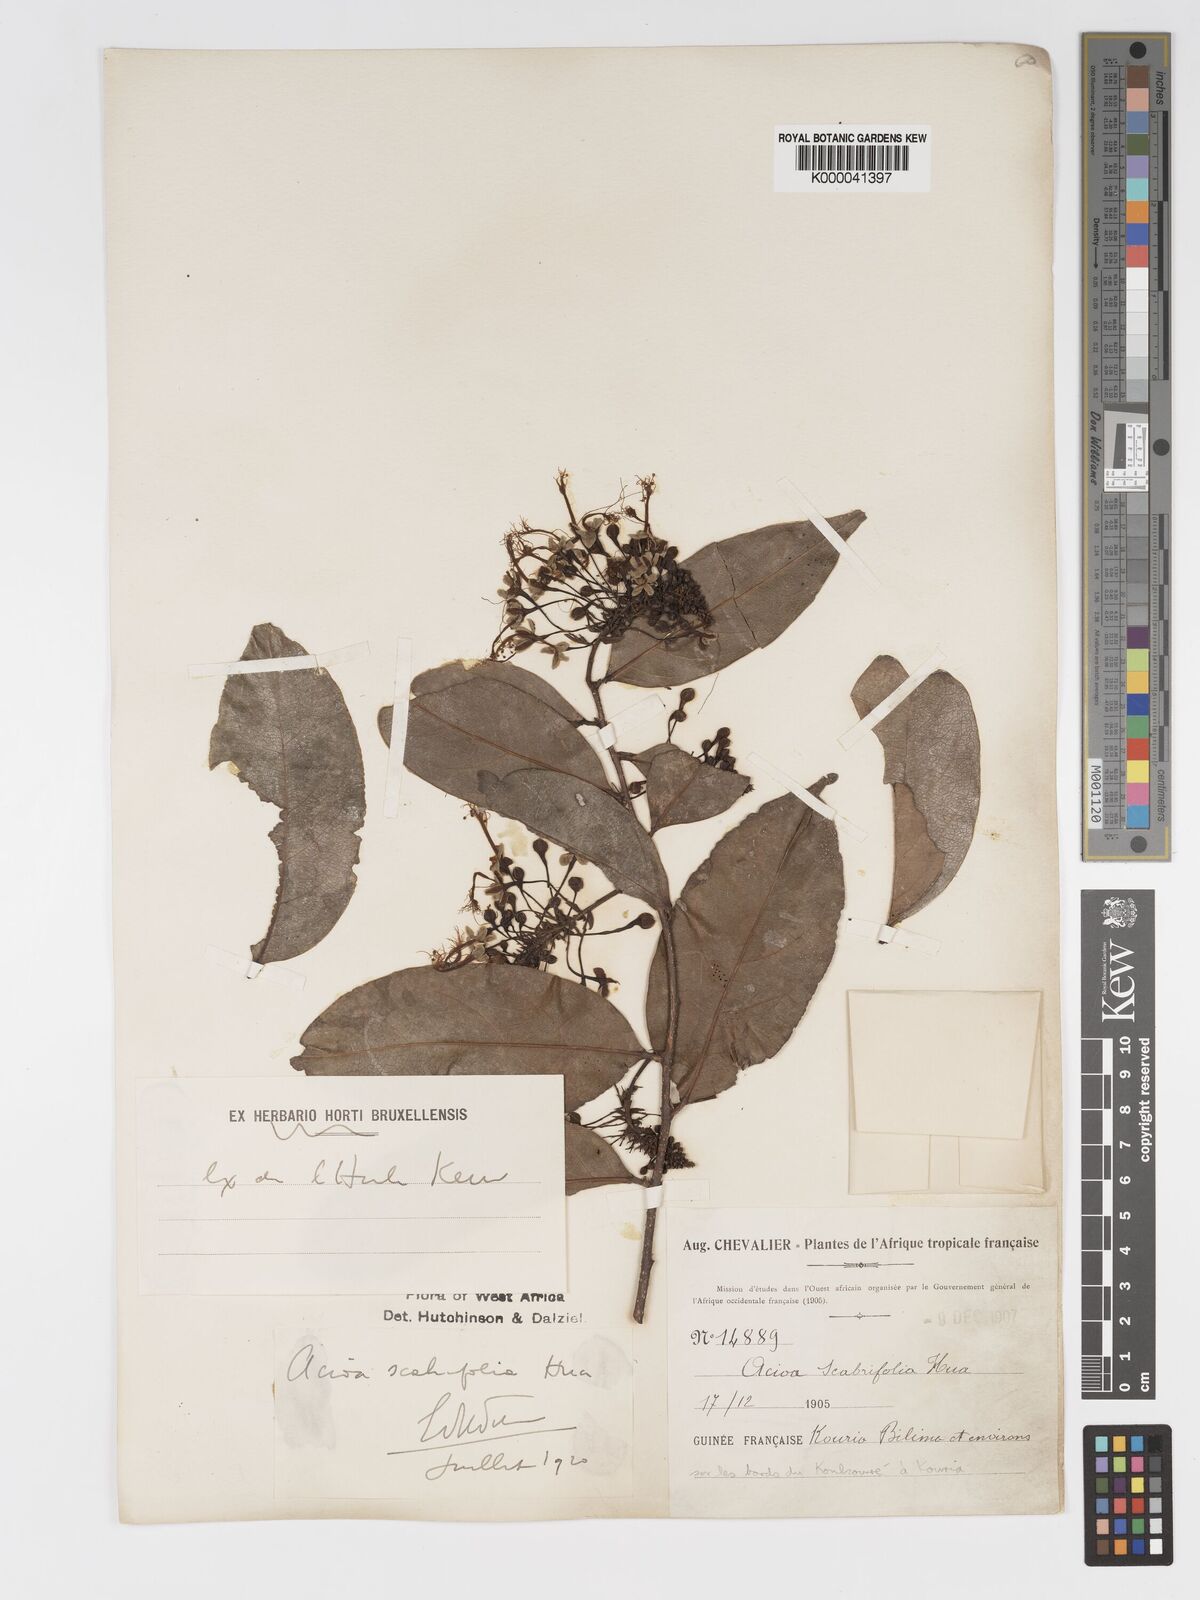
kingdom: Plantae
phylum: Tracheophyta
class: Magnoliopsida
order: Malpighiales
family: Chrysobalanaceae
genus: Dactyladenia
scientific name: Dactyladenia scabrifolia
